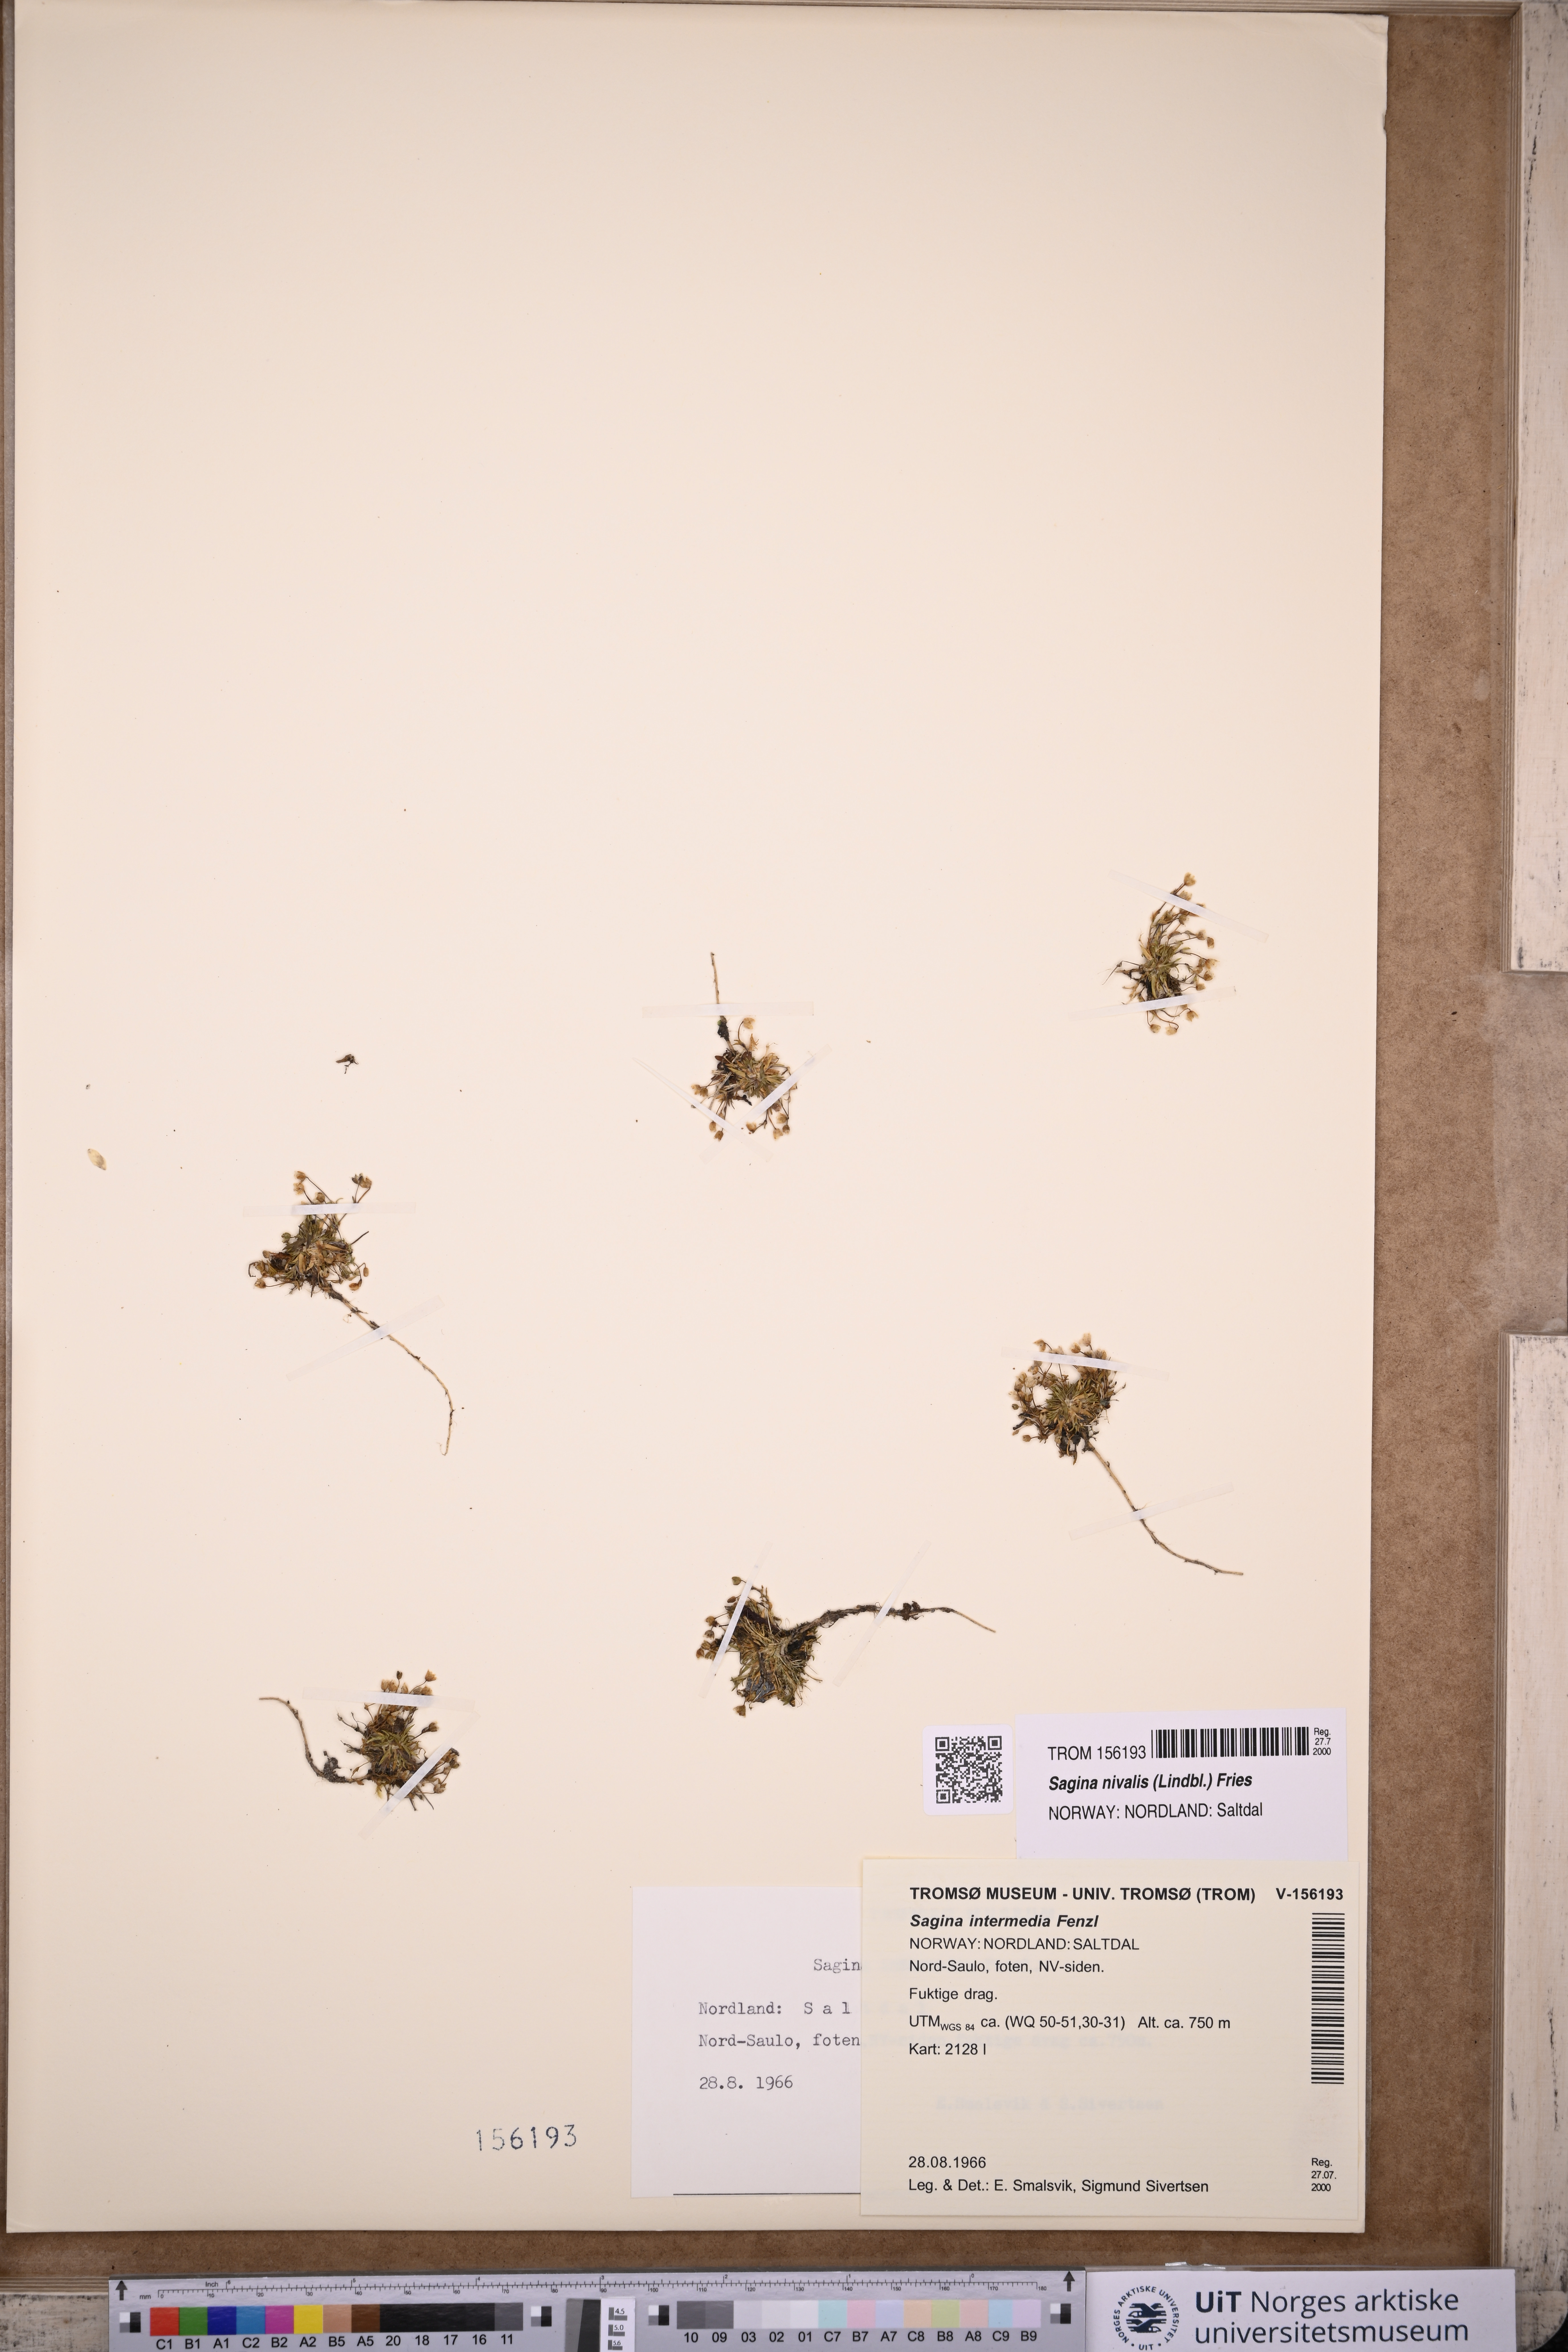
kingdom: Plantae
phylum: Tracheophyta
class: Magnoliopsida
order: Caryophyllales
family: Caryophyllaceae
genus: Sagina
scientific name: Sagina nivalis
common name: Snow pearlwort
